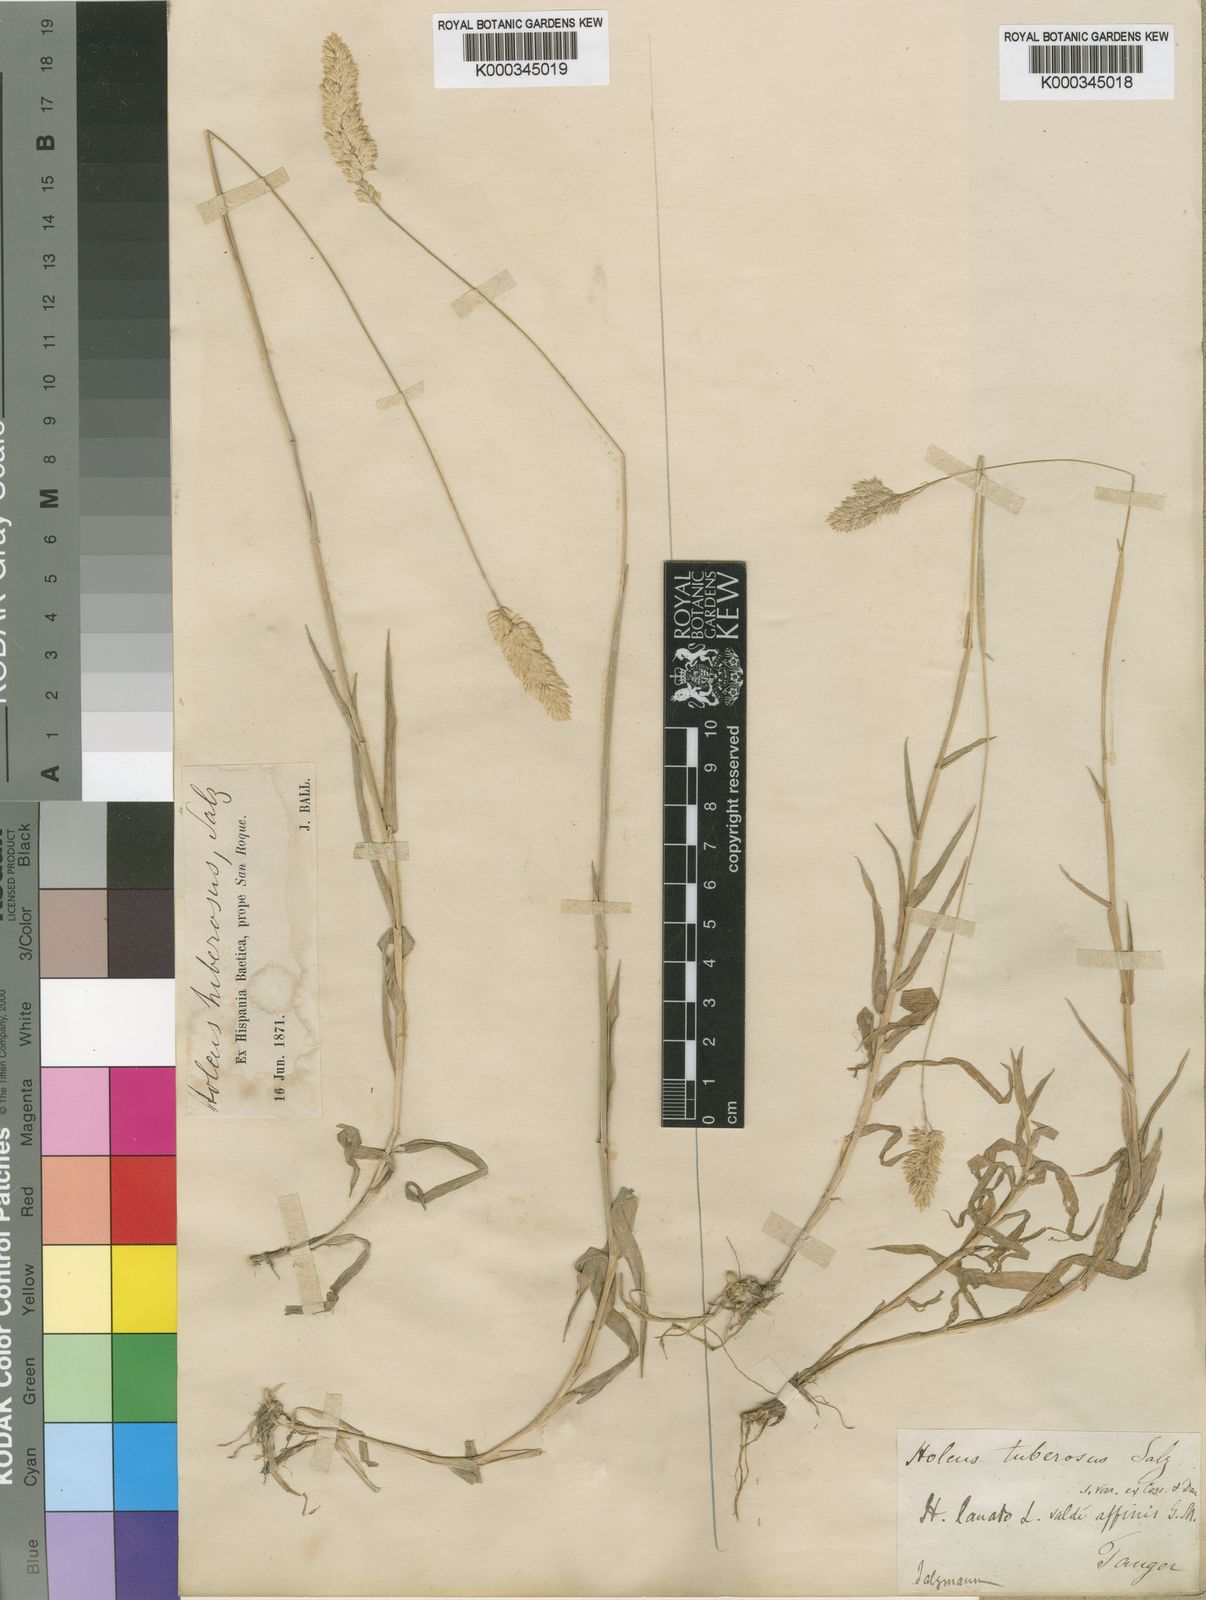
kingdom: Plantae
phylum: Tracheophyta
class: Liliopsida
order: Poales
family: Poaceae
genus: Holcus
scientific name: Holcus lanatus
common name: Yorkshire-fog
